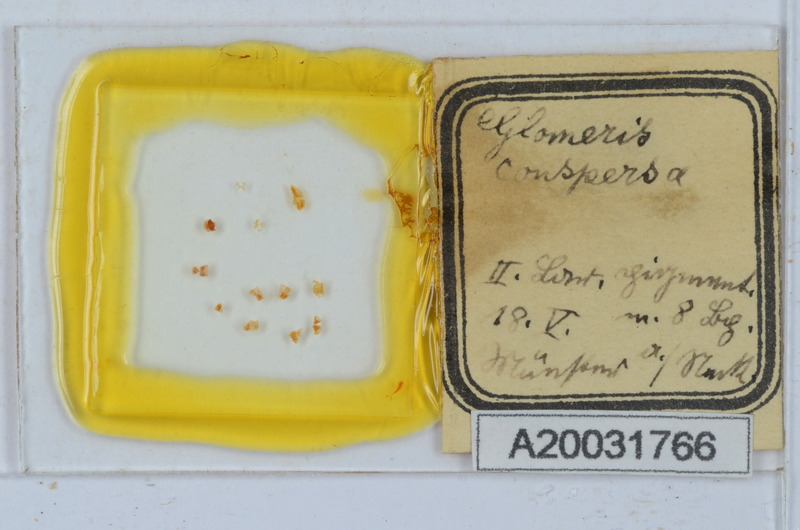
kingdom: Animalia
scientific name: Animalia
